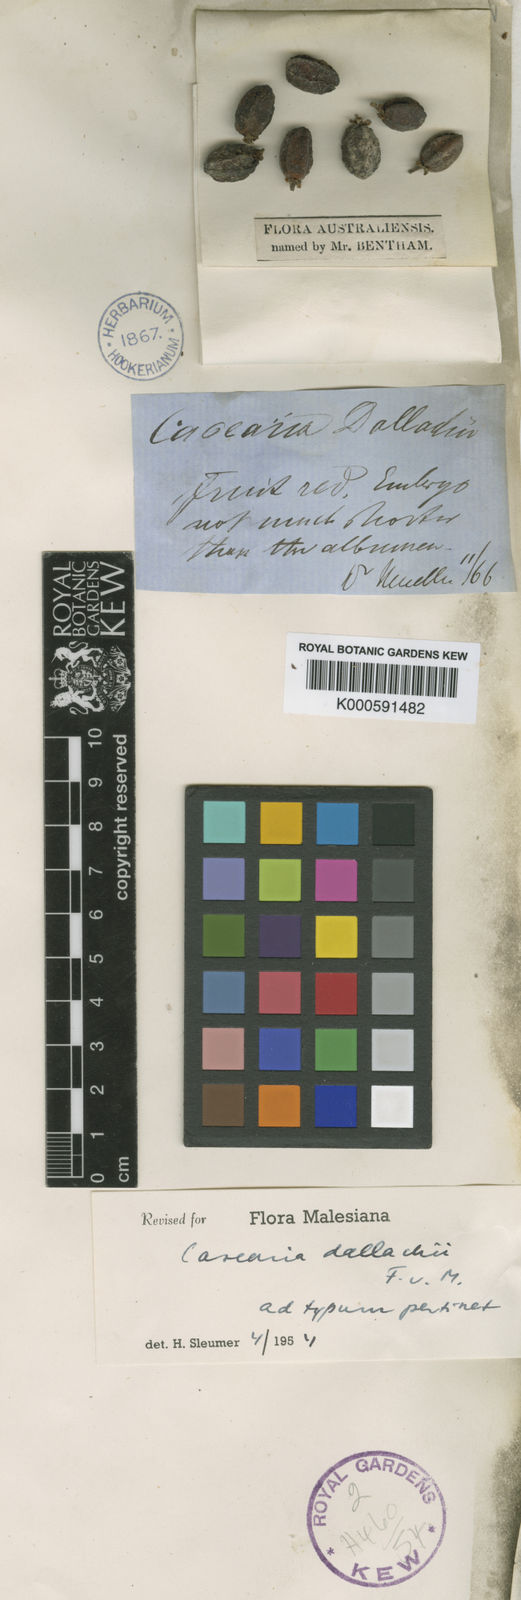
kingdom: Plantae
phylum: Tracheophyta
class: Magnoliopsida
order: Malpighiales
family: Salicaceae
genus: Casearia
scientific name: Casearia dallachyi
